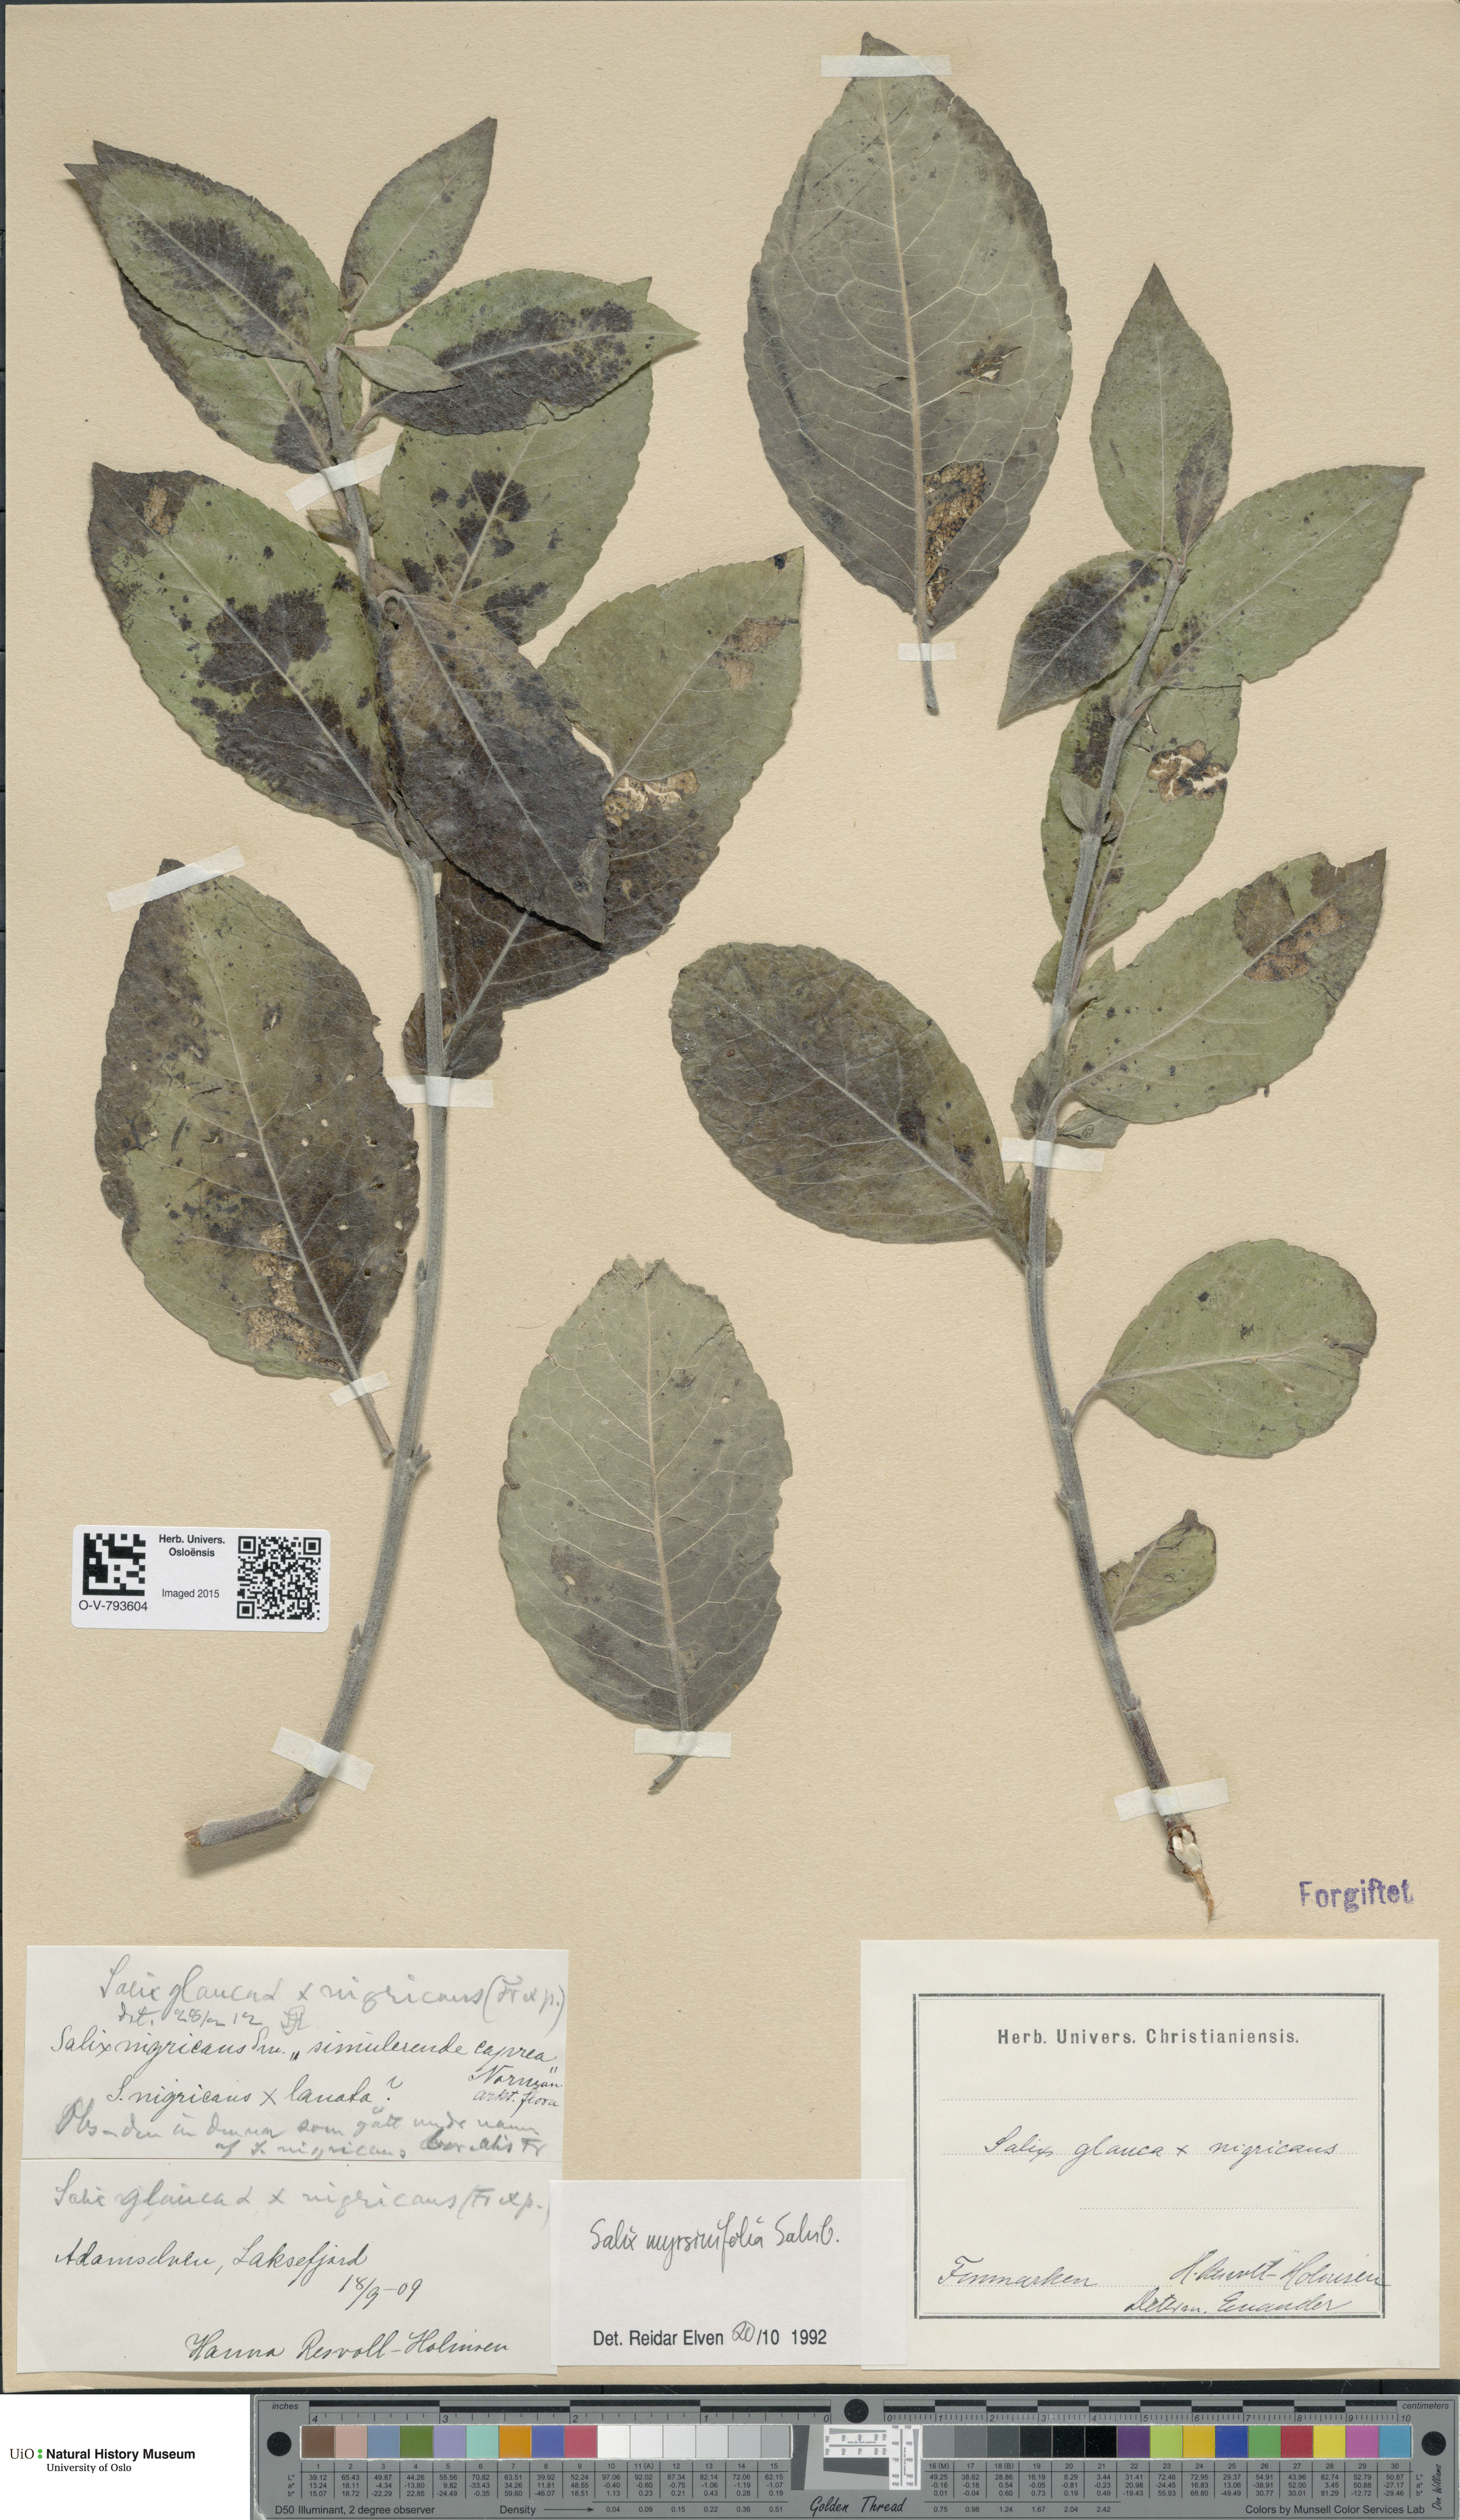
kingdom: Plantae
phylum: Tracheophyta
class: Magnoliopsida
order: Malpighiales
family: Salicaceae
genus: Salix
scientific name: Salix myrsinifolia
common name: Dark-leaved willow
